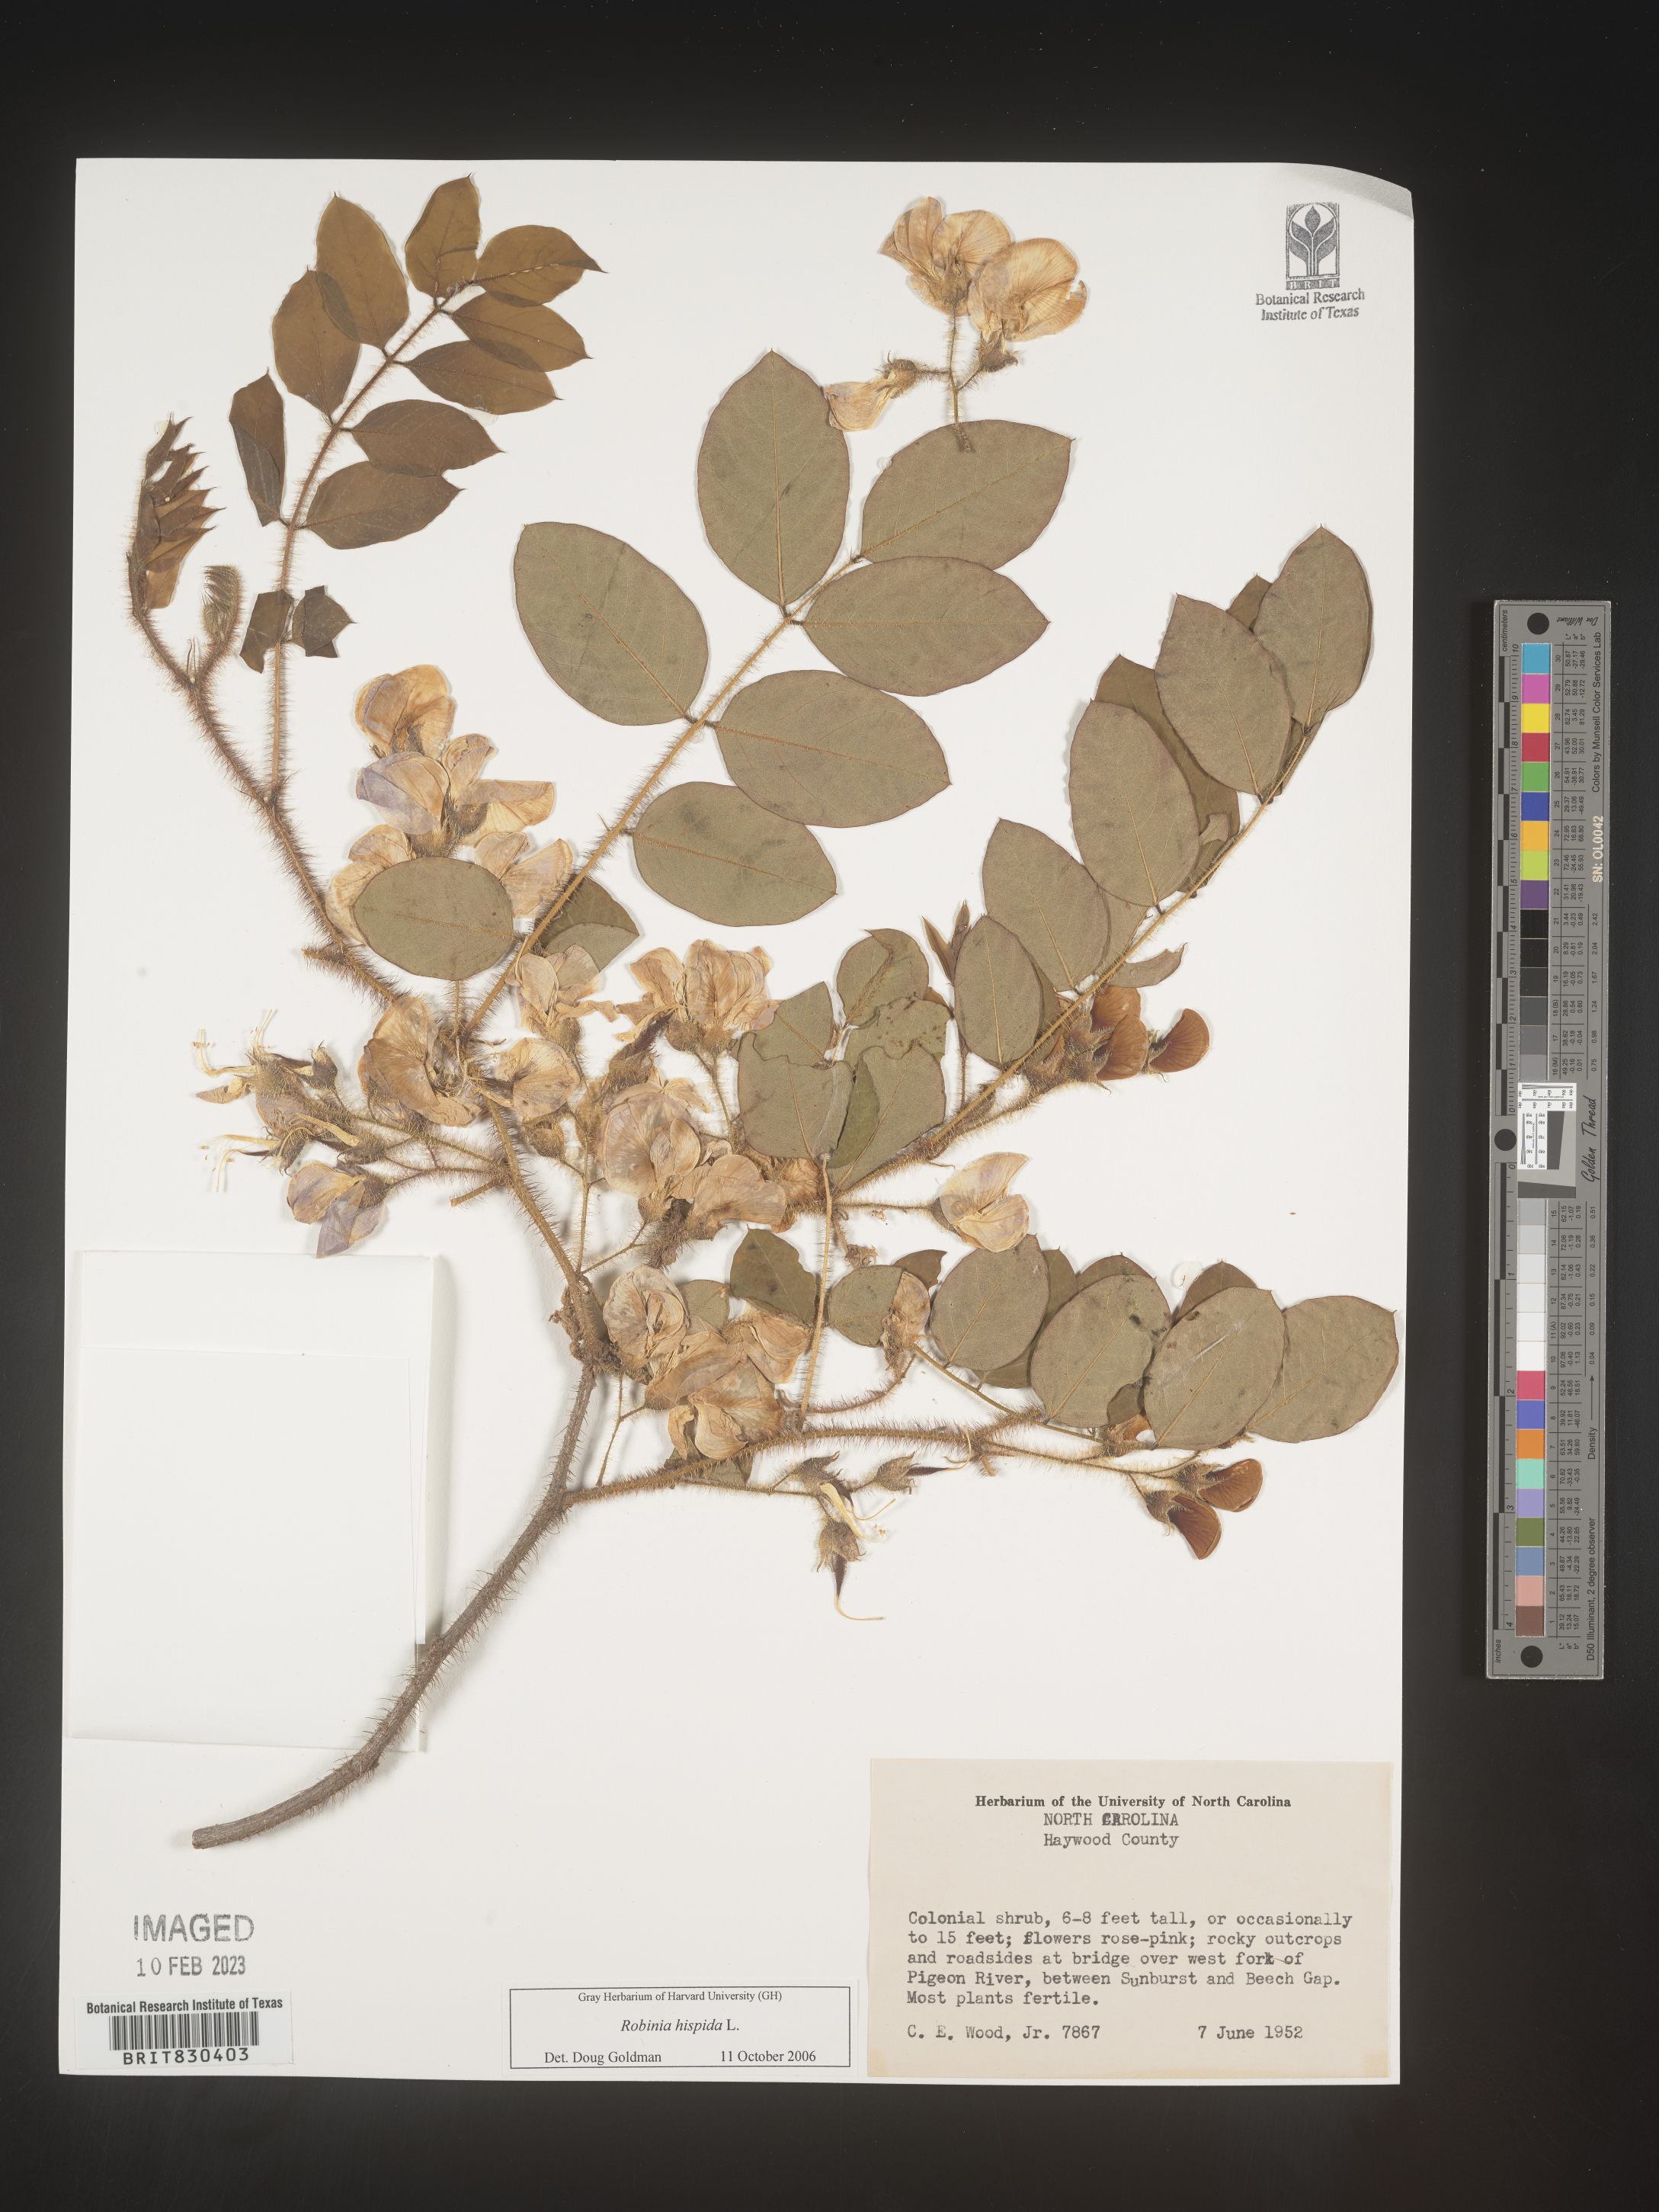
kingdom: Plantae
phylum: Tracheophyta
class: Magnoliopsida
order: Fabales
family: Fabaceae
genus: Robinia
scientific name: Robinia hispida
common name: Bristly locust
